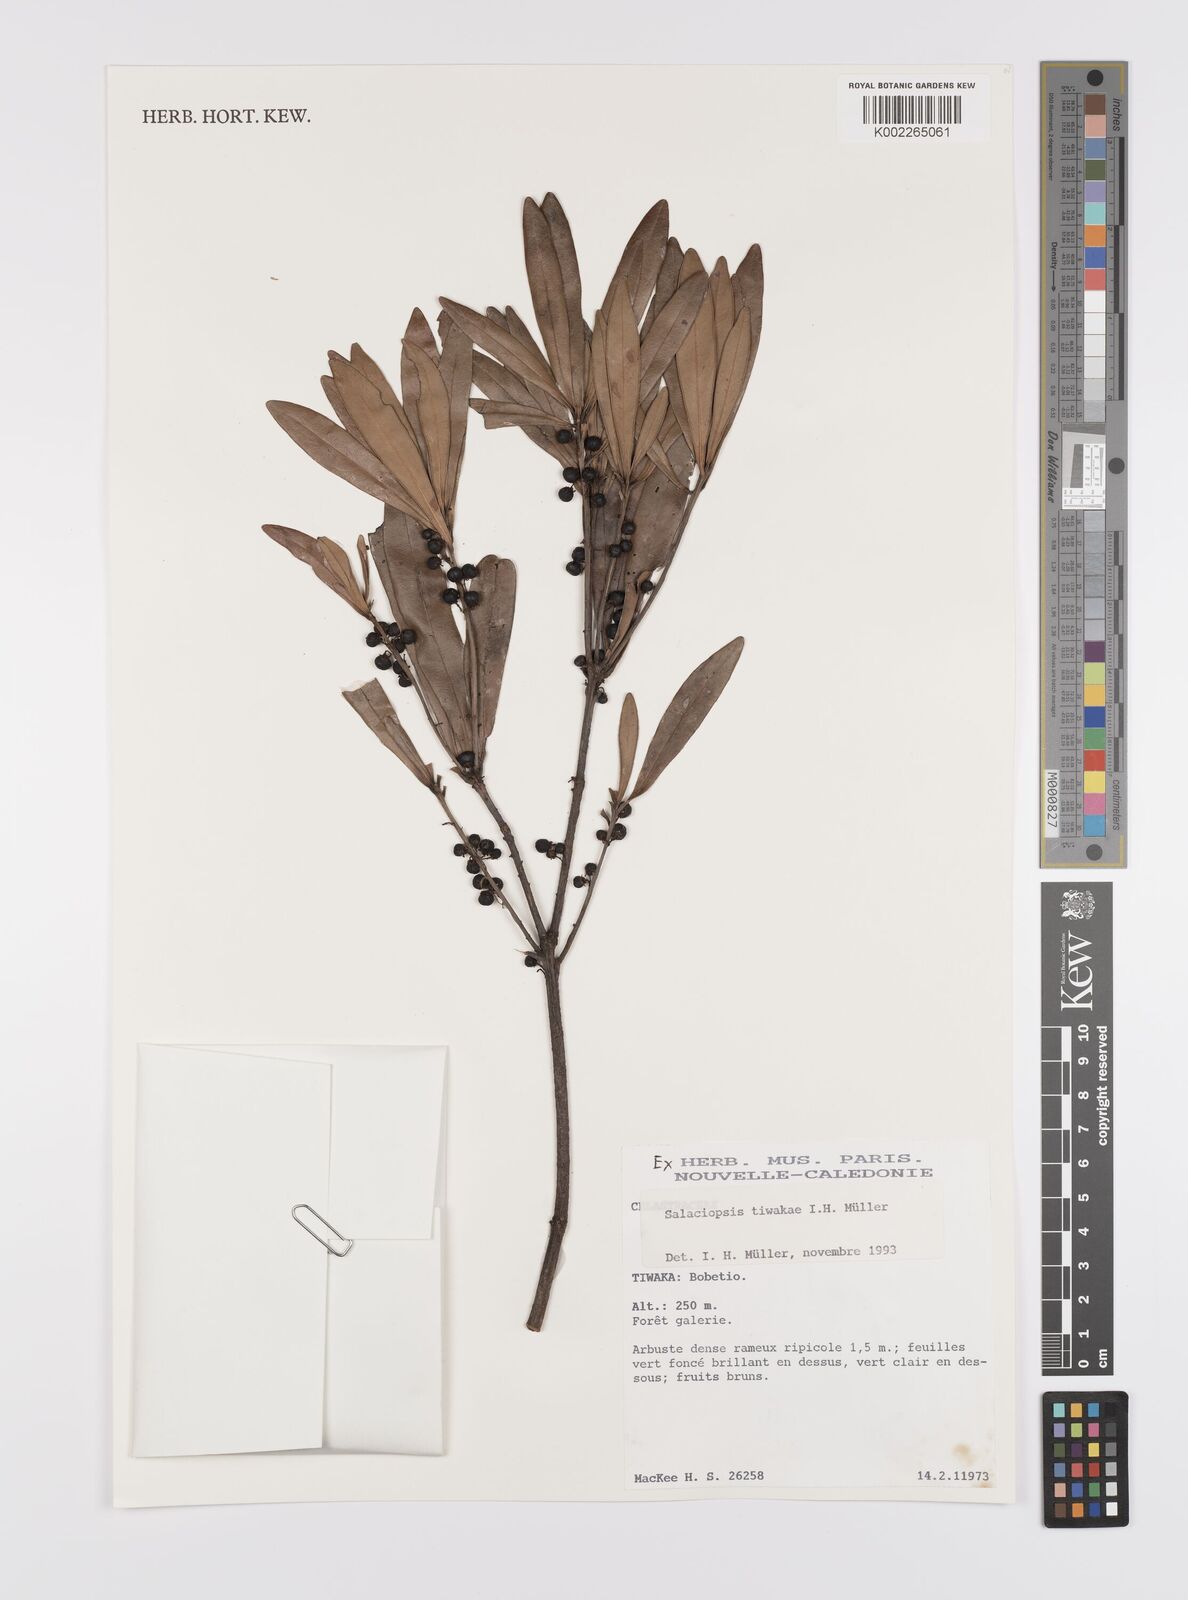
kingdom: Plantae
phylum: Tracheophyta
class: Magnoliopsida
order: Celastrales
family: Celastraceae
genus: Salaciopsis
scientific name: Salaciopsis tiwakae
